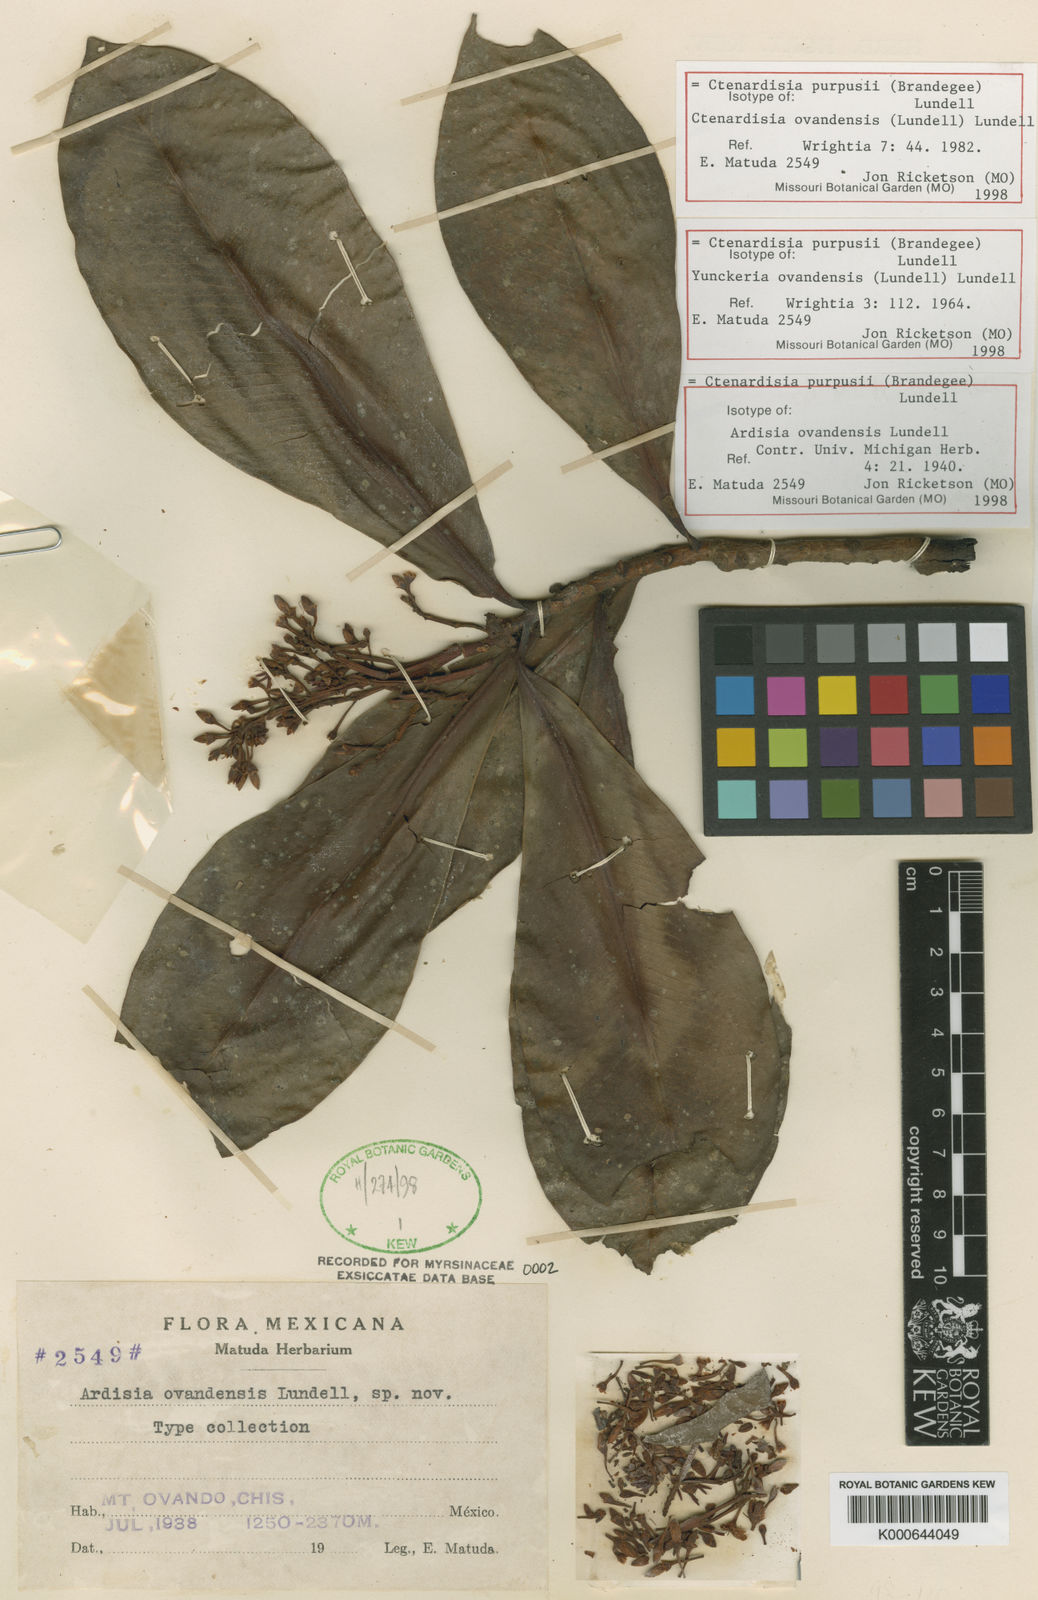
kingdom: Plantae
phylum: Tracheophyta
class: Magnoliopsida
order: Ericales
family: Primulaceae
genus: Ctenardisia
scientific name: Ctenardisia purpusii
